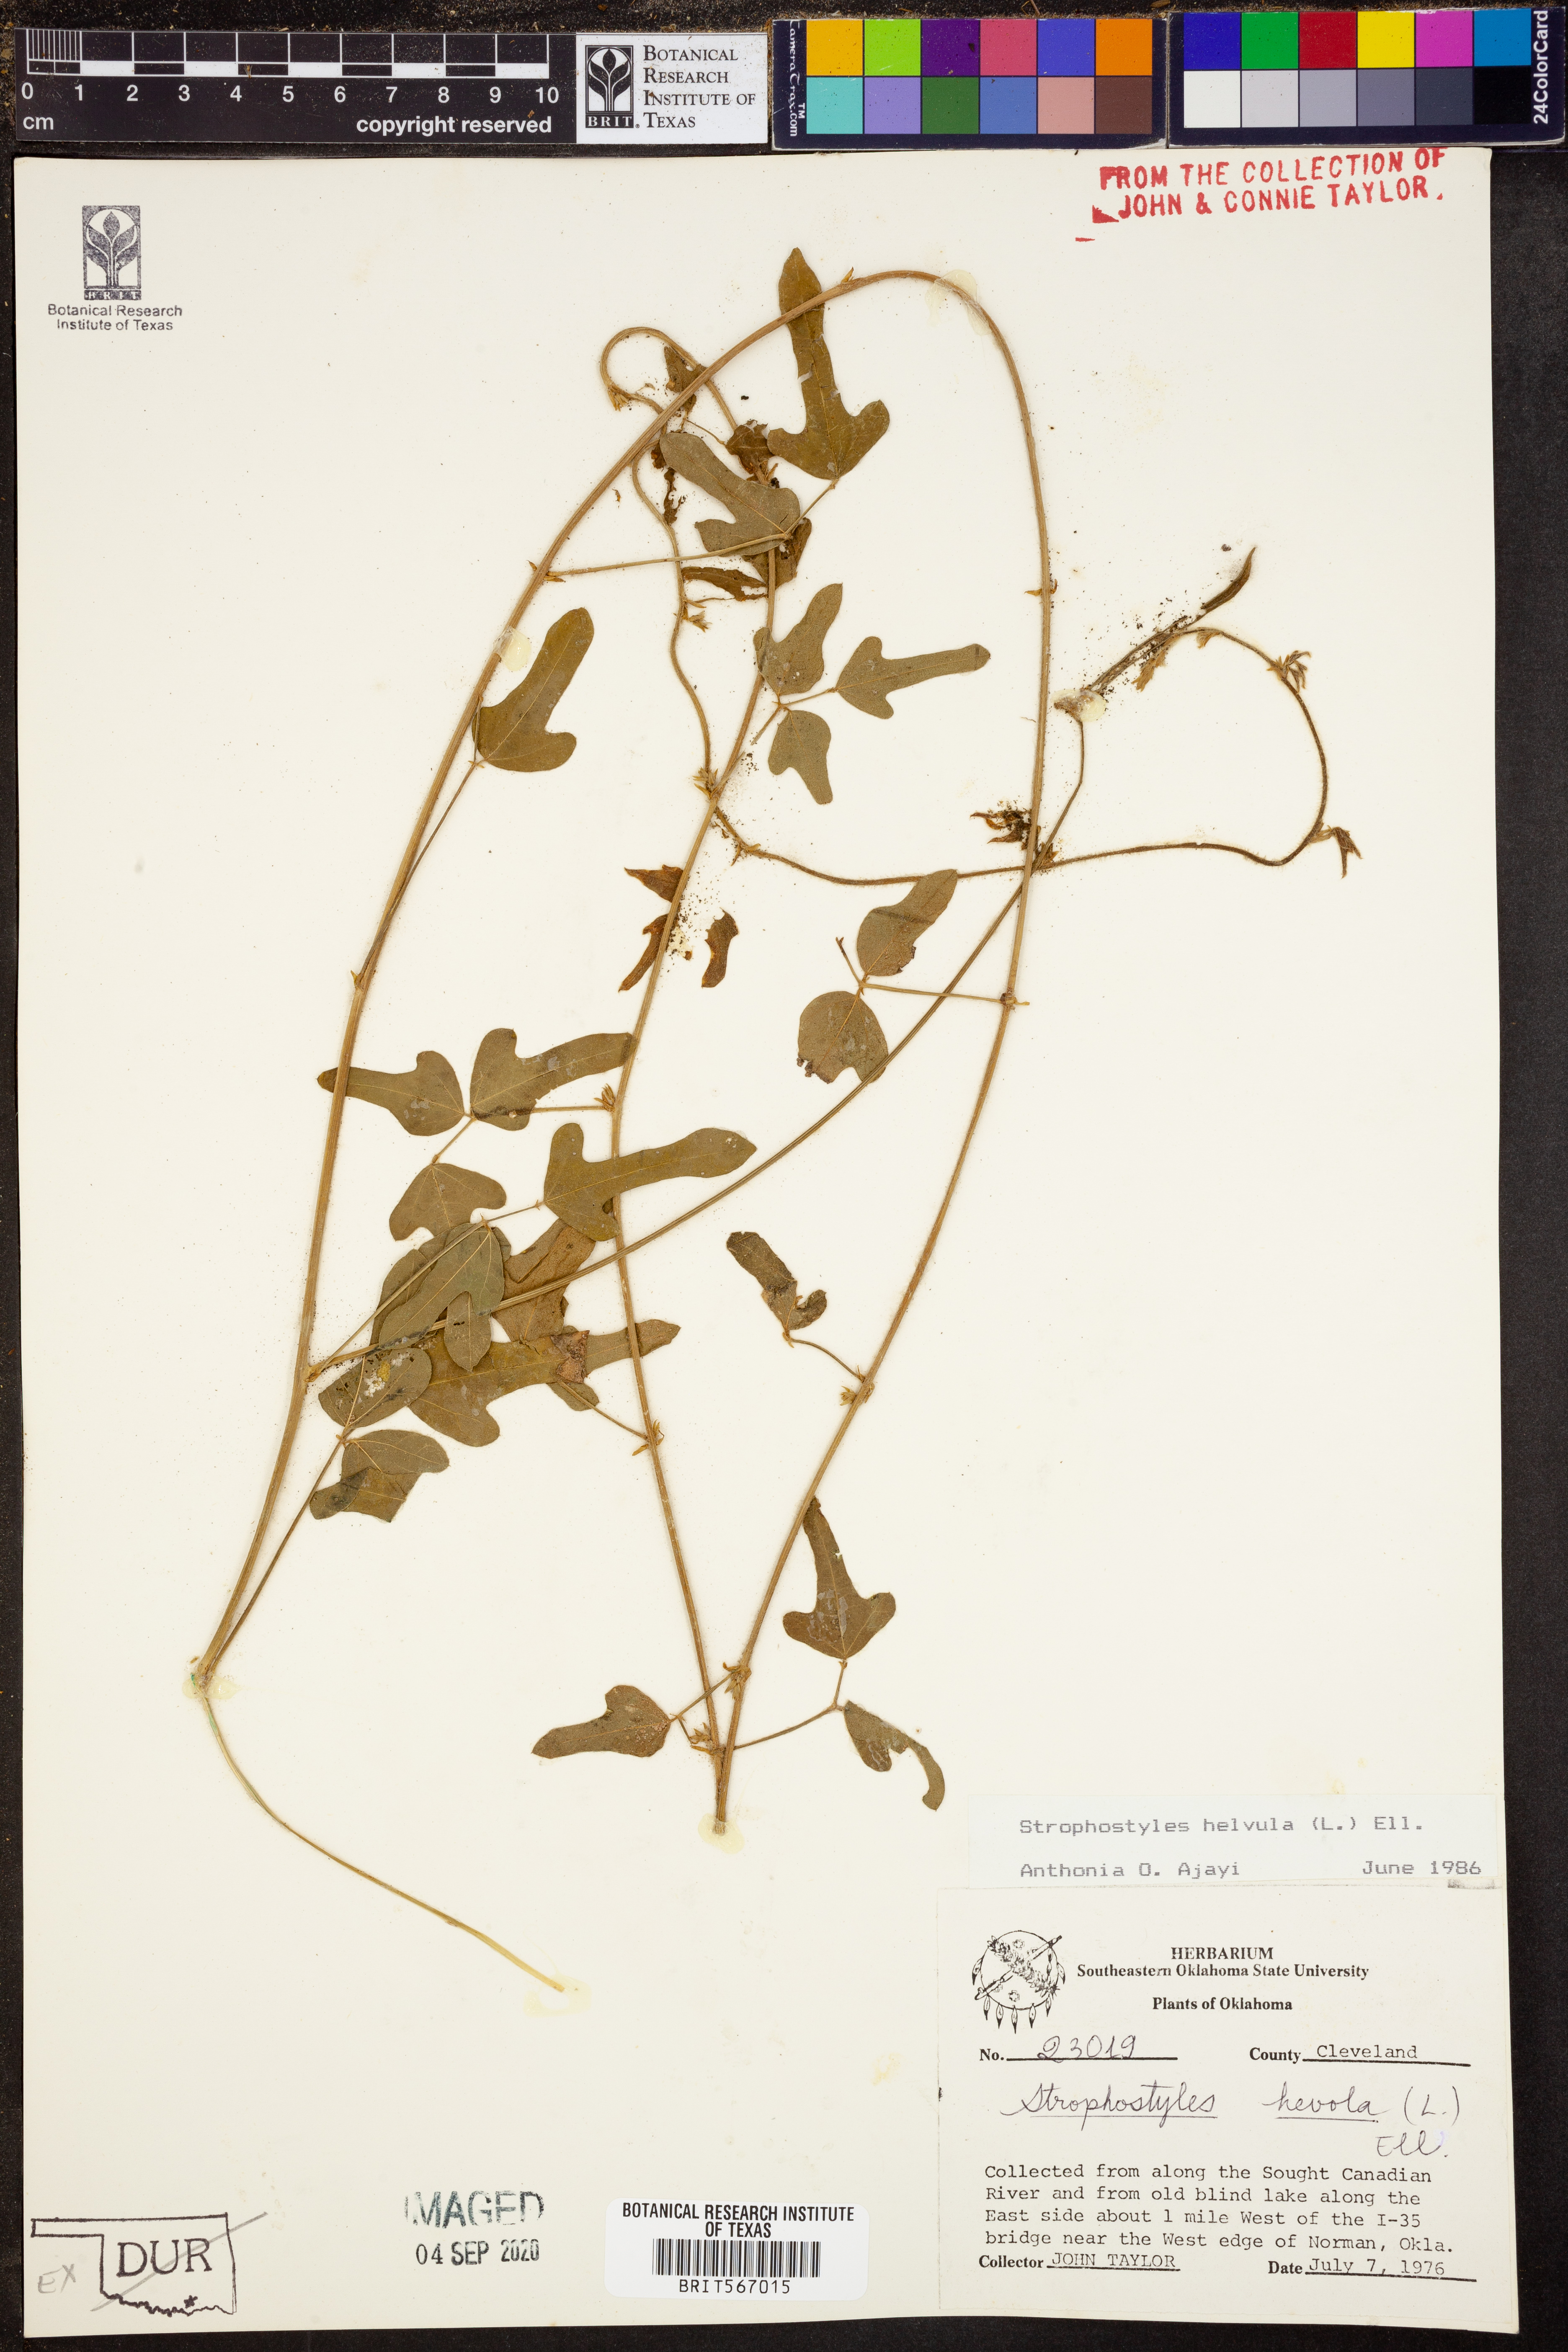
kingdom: Plantae
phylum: Tracheophyta
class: Magnoliopsida
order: Fabales
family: Fabaceae
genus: Strophostyles
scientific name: Strophostyles helvula
